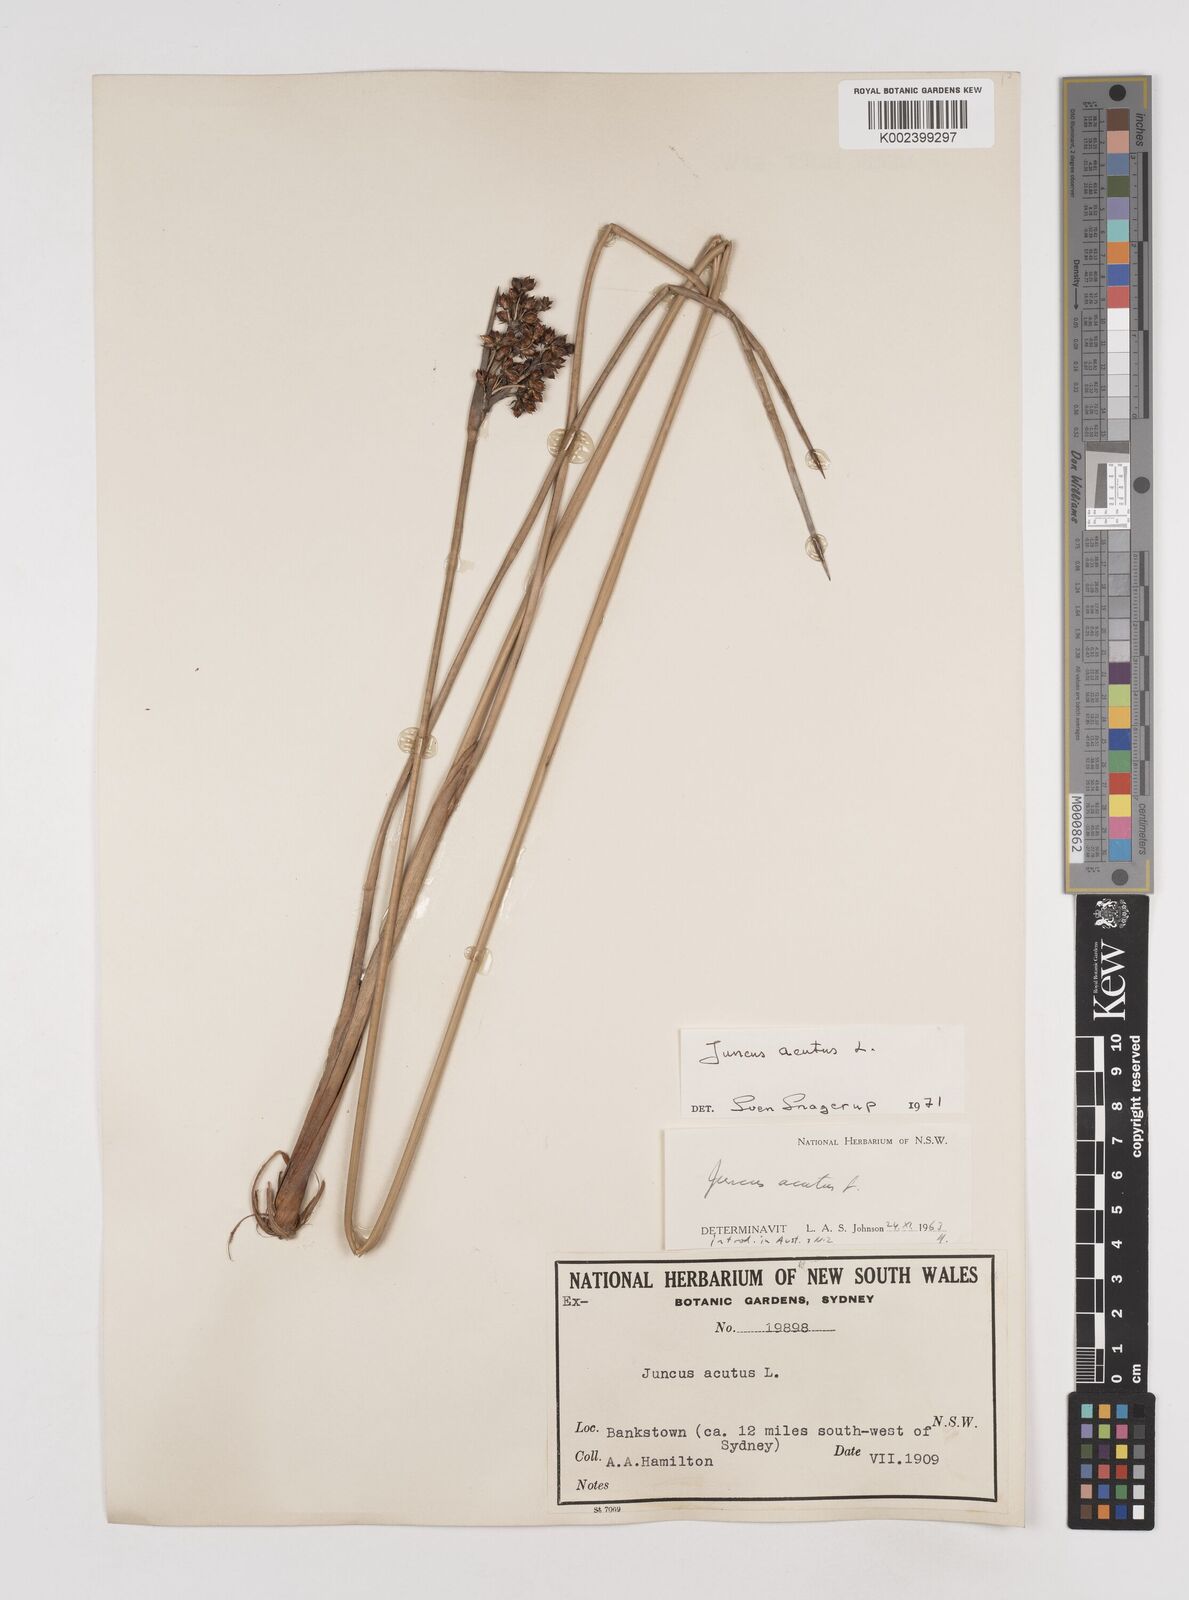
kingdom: Plantae
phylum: Tracheophyta
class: Liliopsida
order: Poales
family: Juncaceae
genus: Juncus
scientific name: Juncus acutus
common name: Sharp rush
